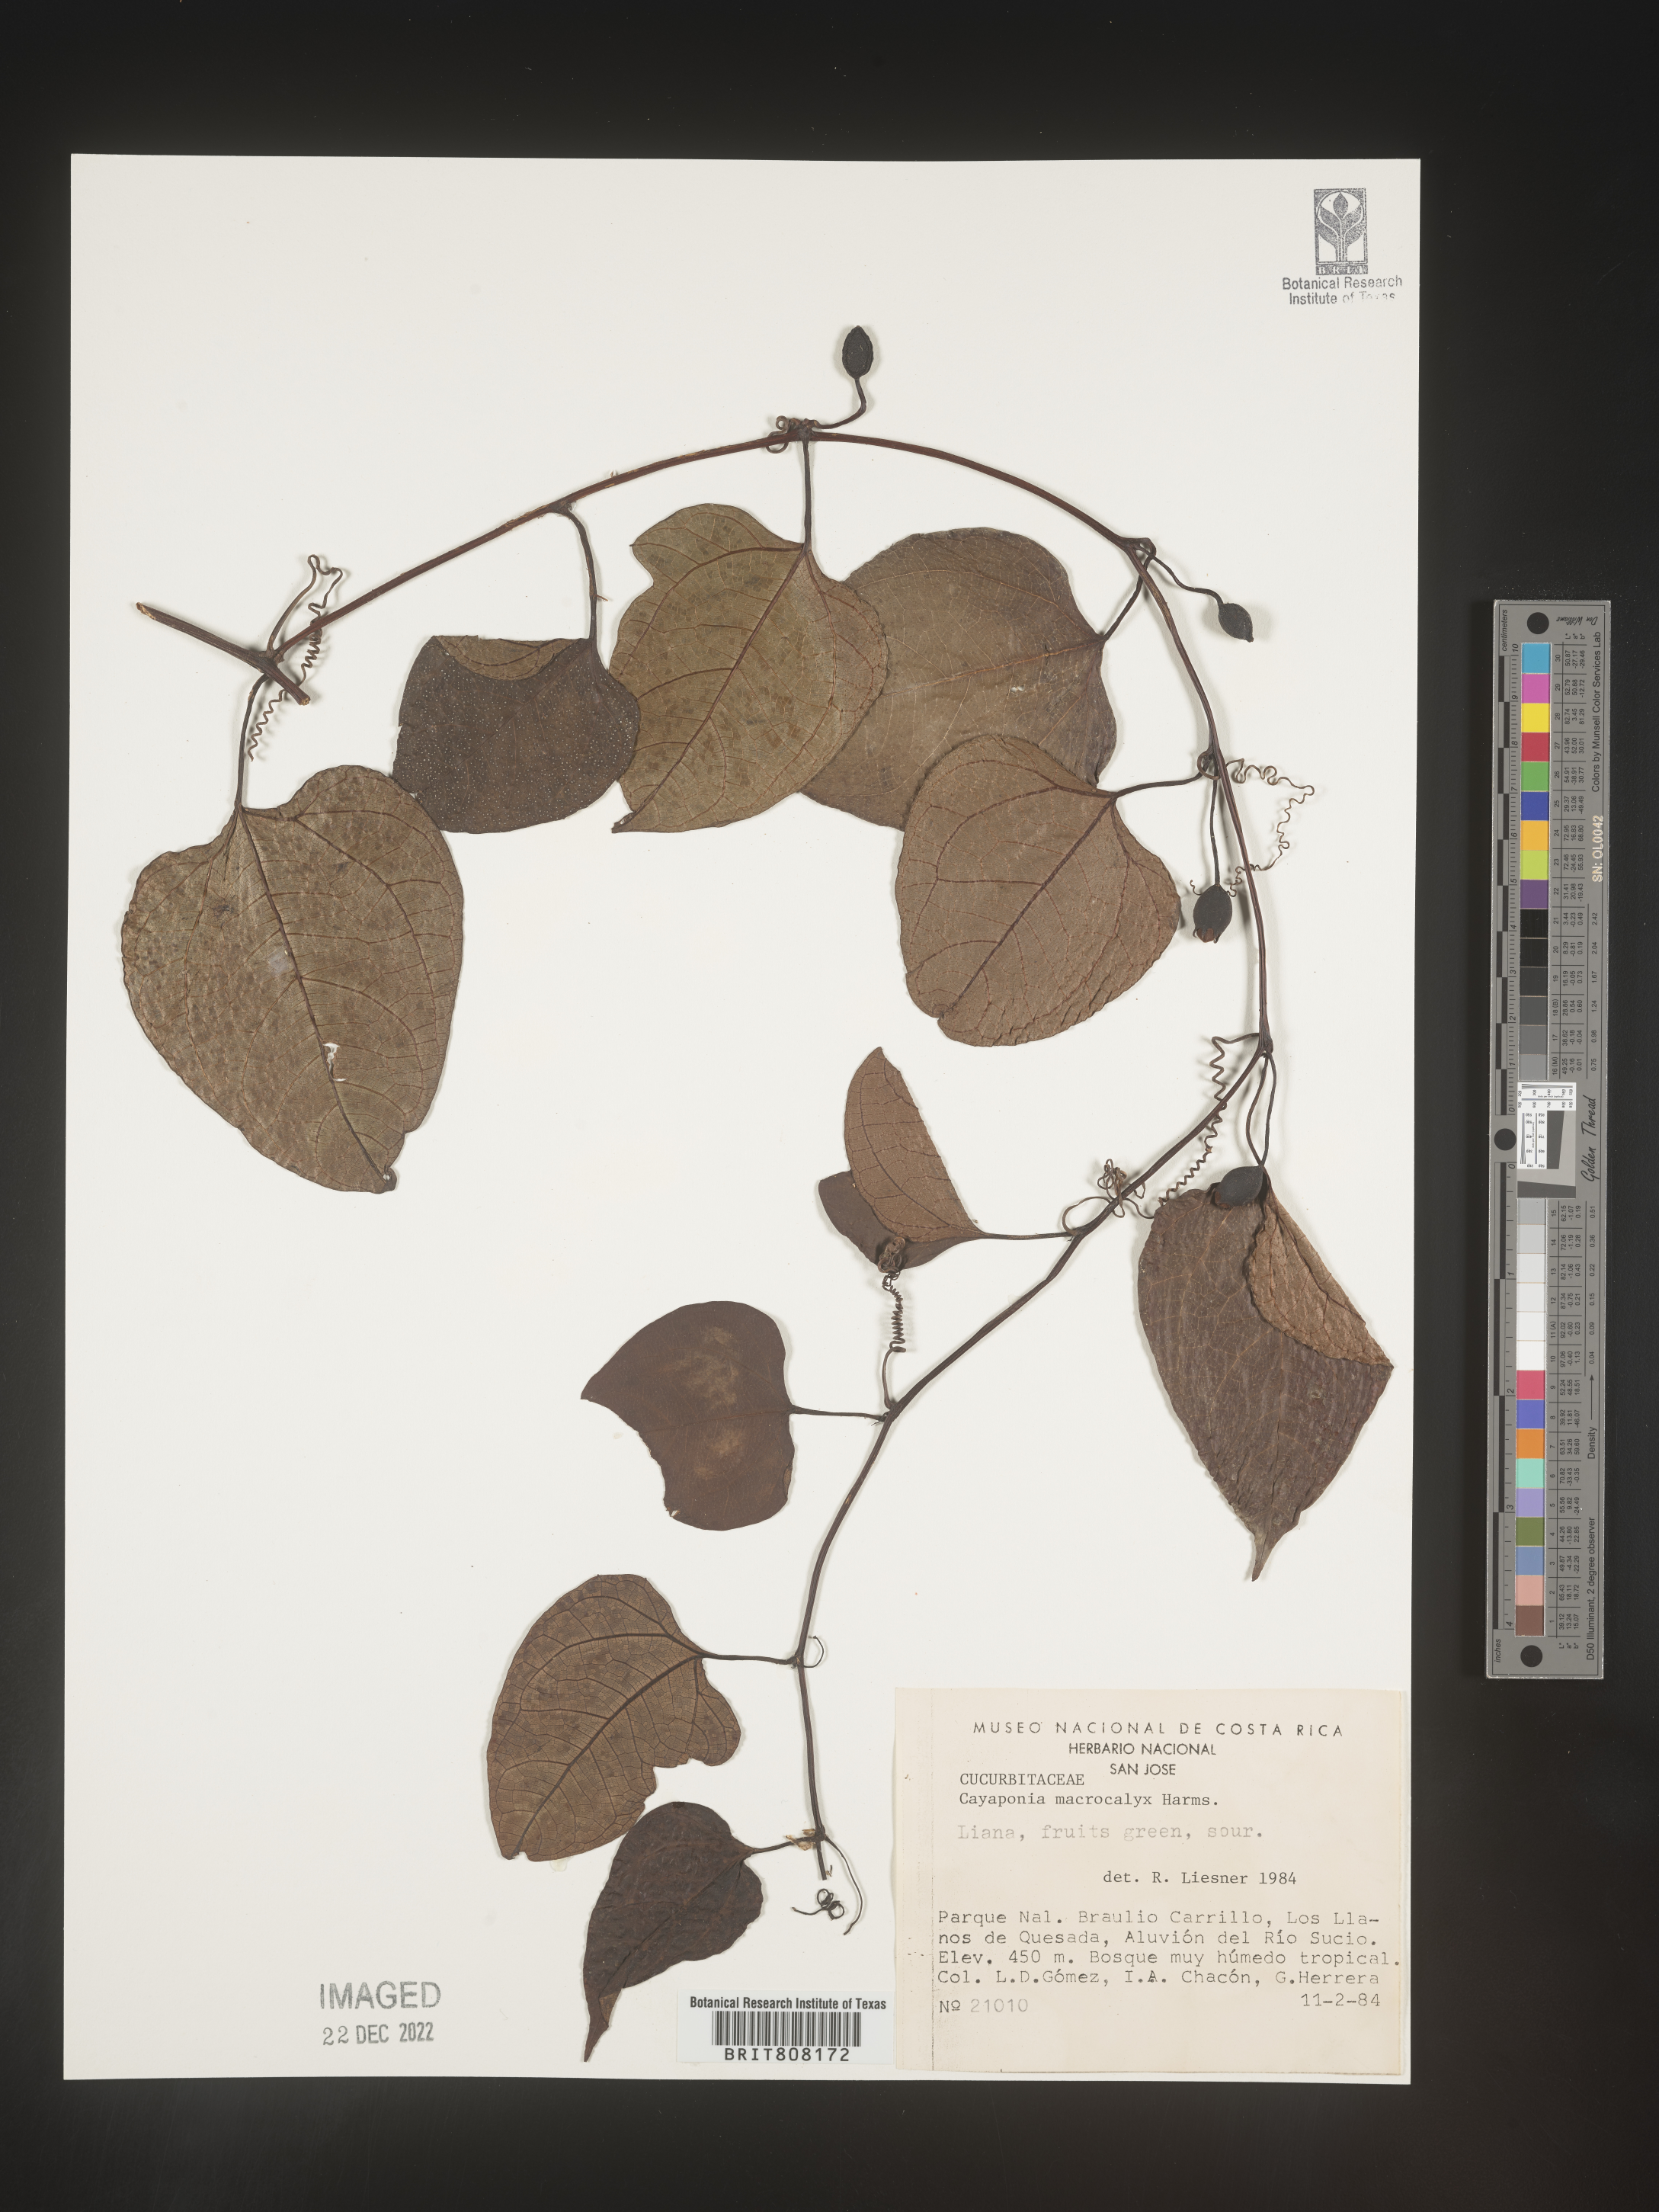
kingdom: Plantae
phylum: Tracheophyta
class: Magnoliopsida
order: Cucurbitales
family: Cucurbitaceae
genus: Cayaponia
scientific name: Cayaponia
